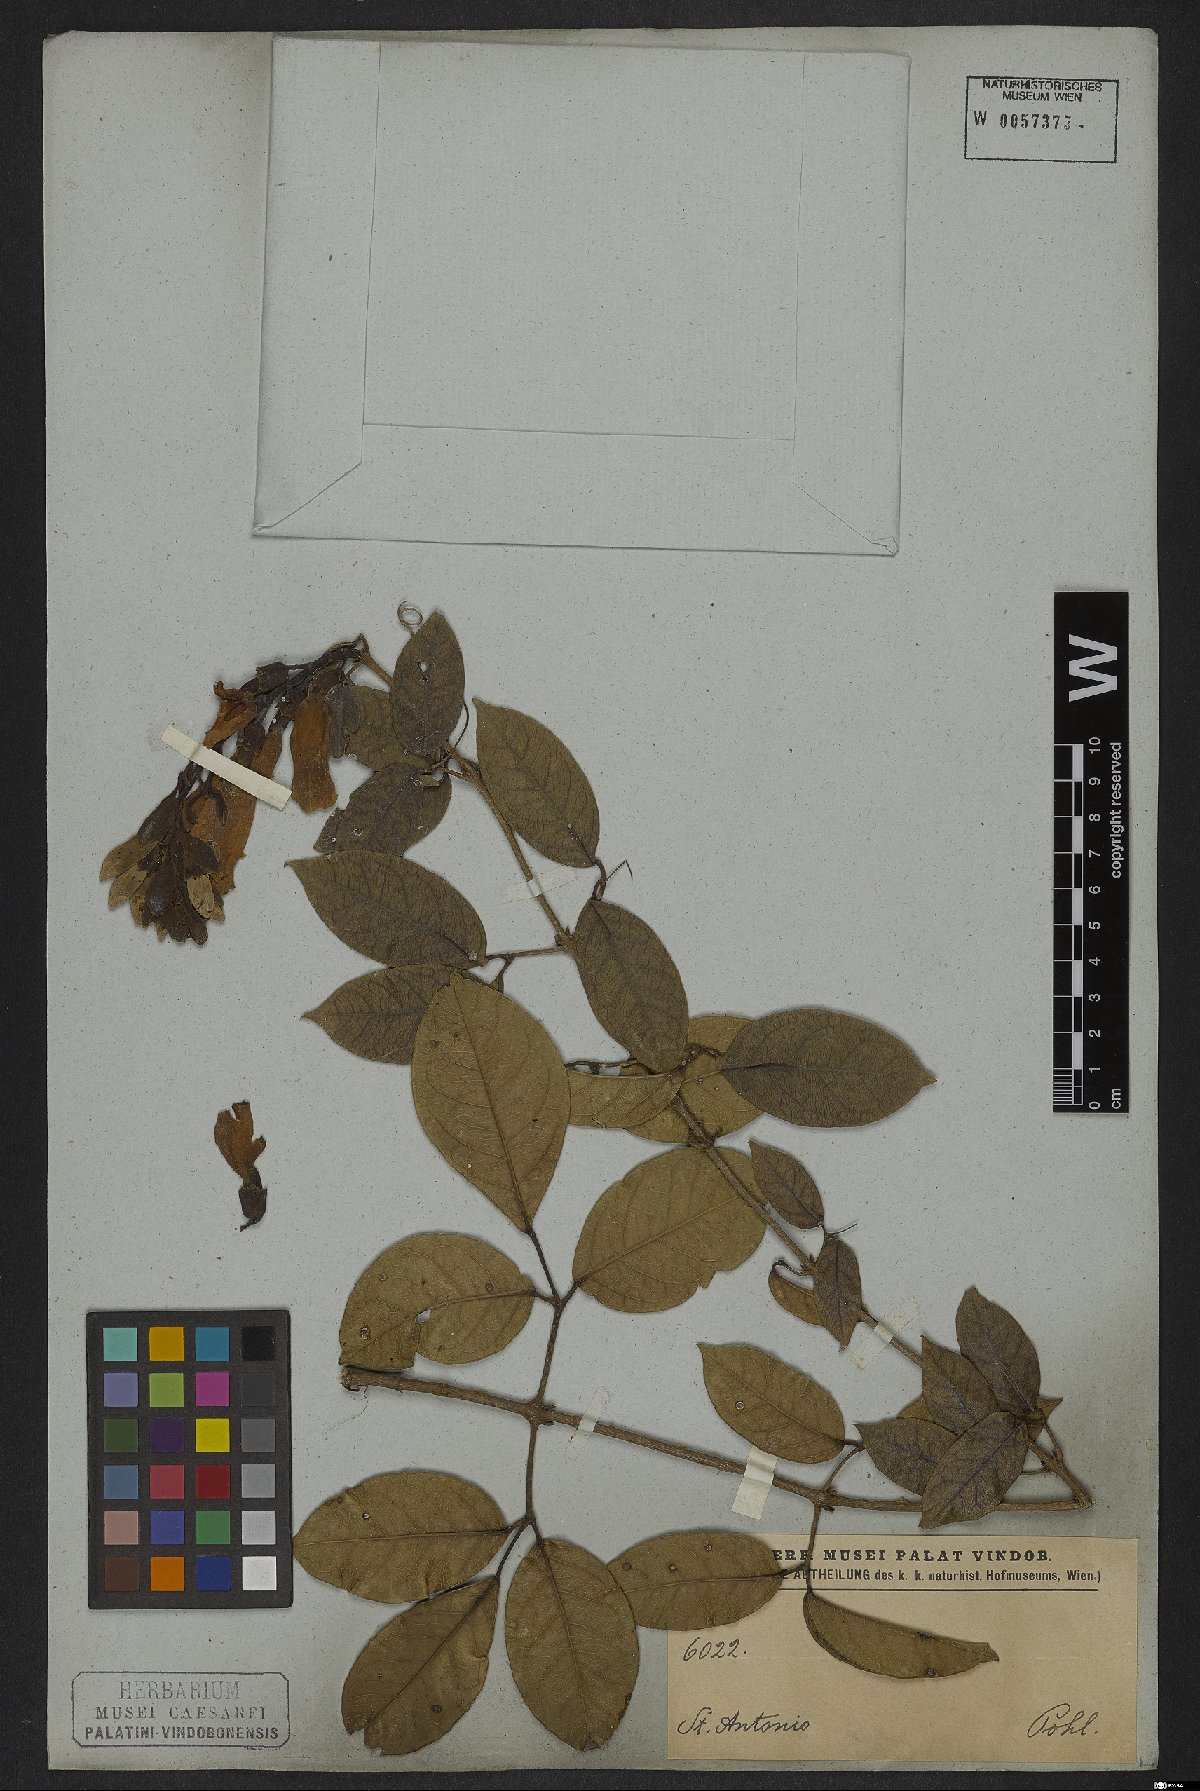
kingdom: Plantae
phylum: Tracheophyta
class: Magnoliopsida
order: Lamiales
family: Bignoniaceae
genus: Adenocalymma
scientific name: Adenocalymma marginatum
